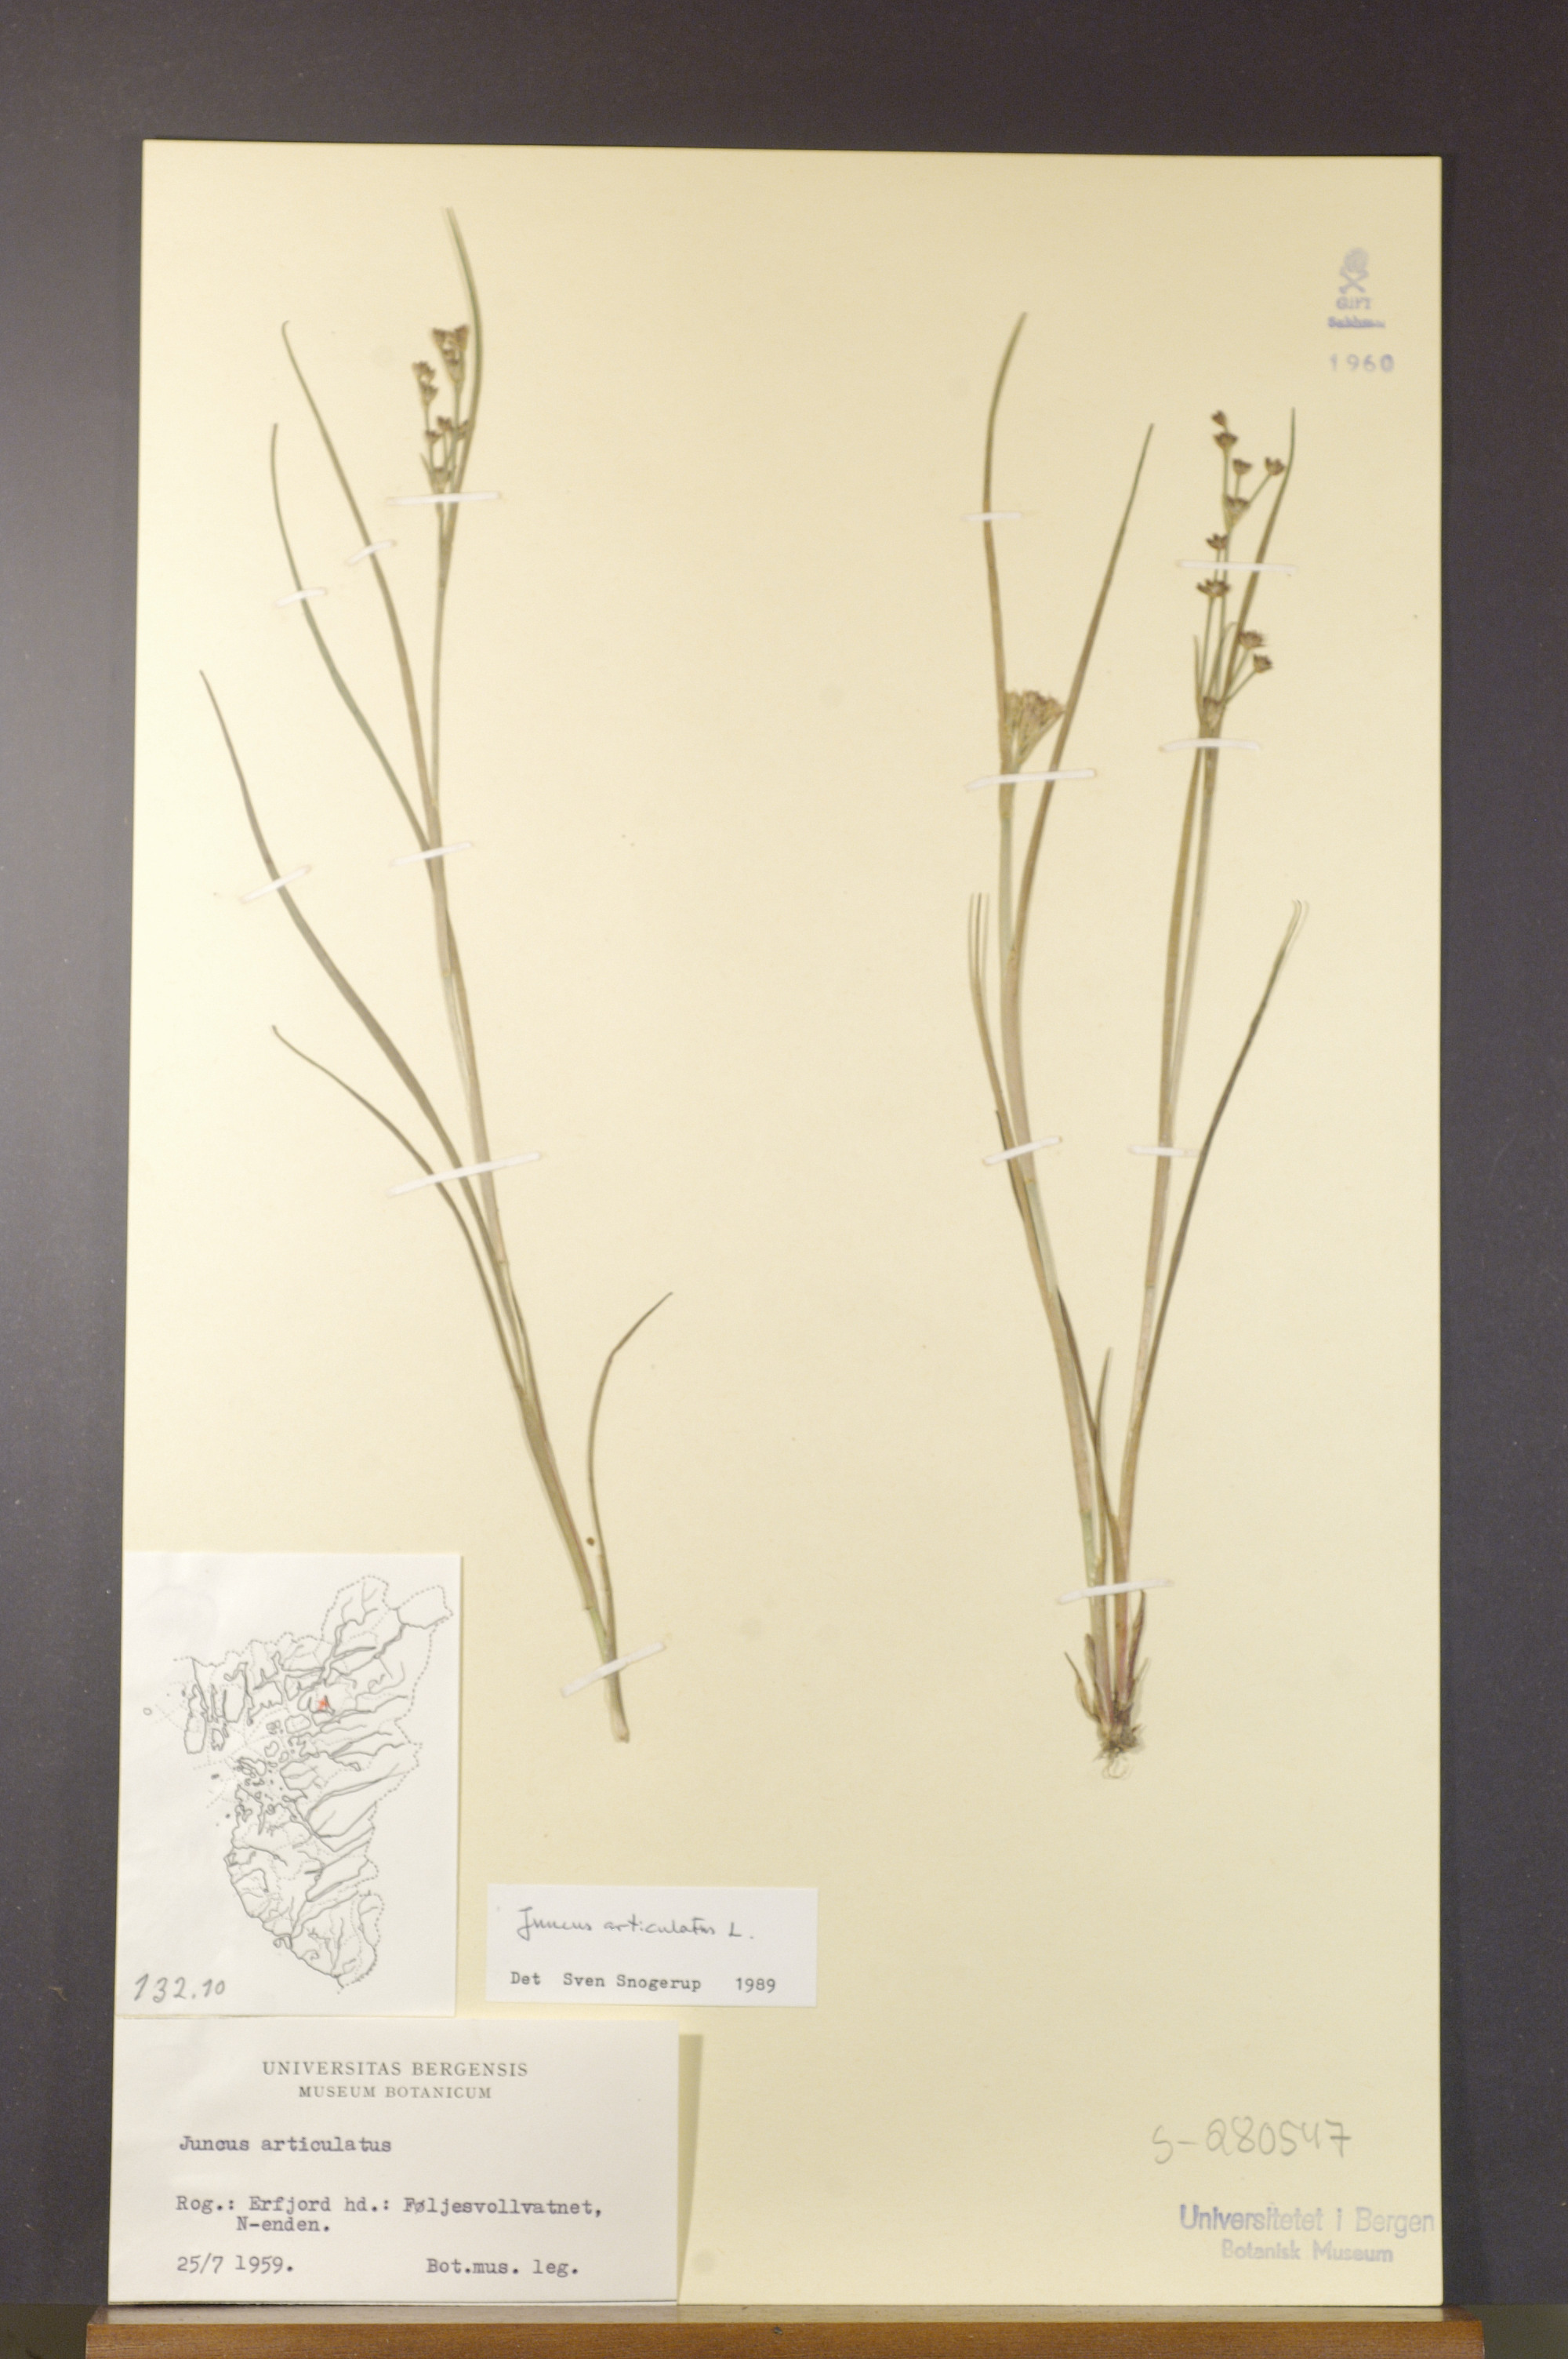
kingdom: Plantae
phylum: Tracheophyta
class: Liliopsida
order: Poales
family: Juncaceae
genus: Juncus
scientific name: Juncus articulatus
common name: Jointed rush
